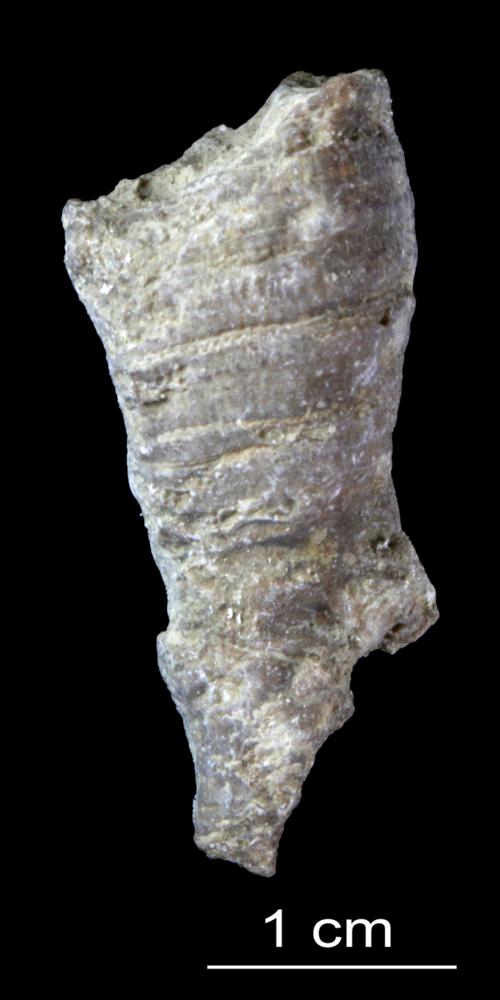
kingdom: Animalia
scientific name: Animalia
